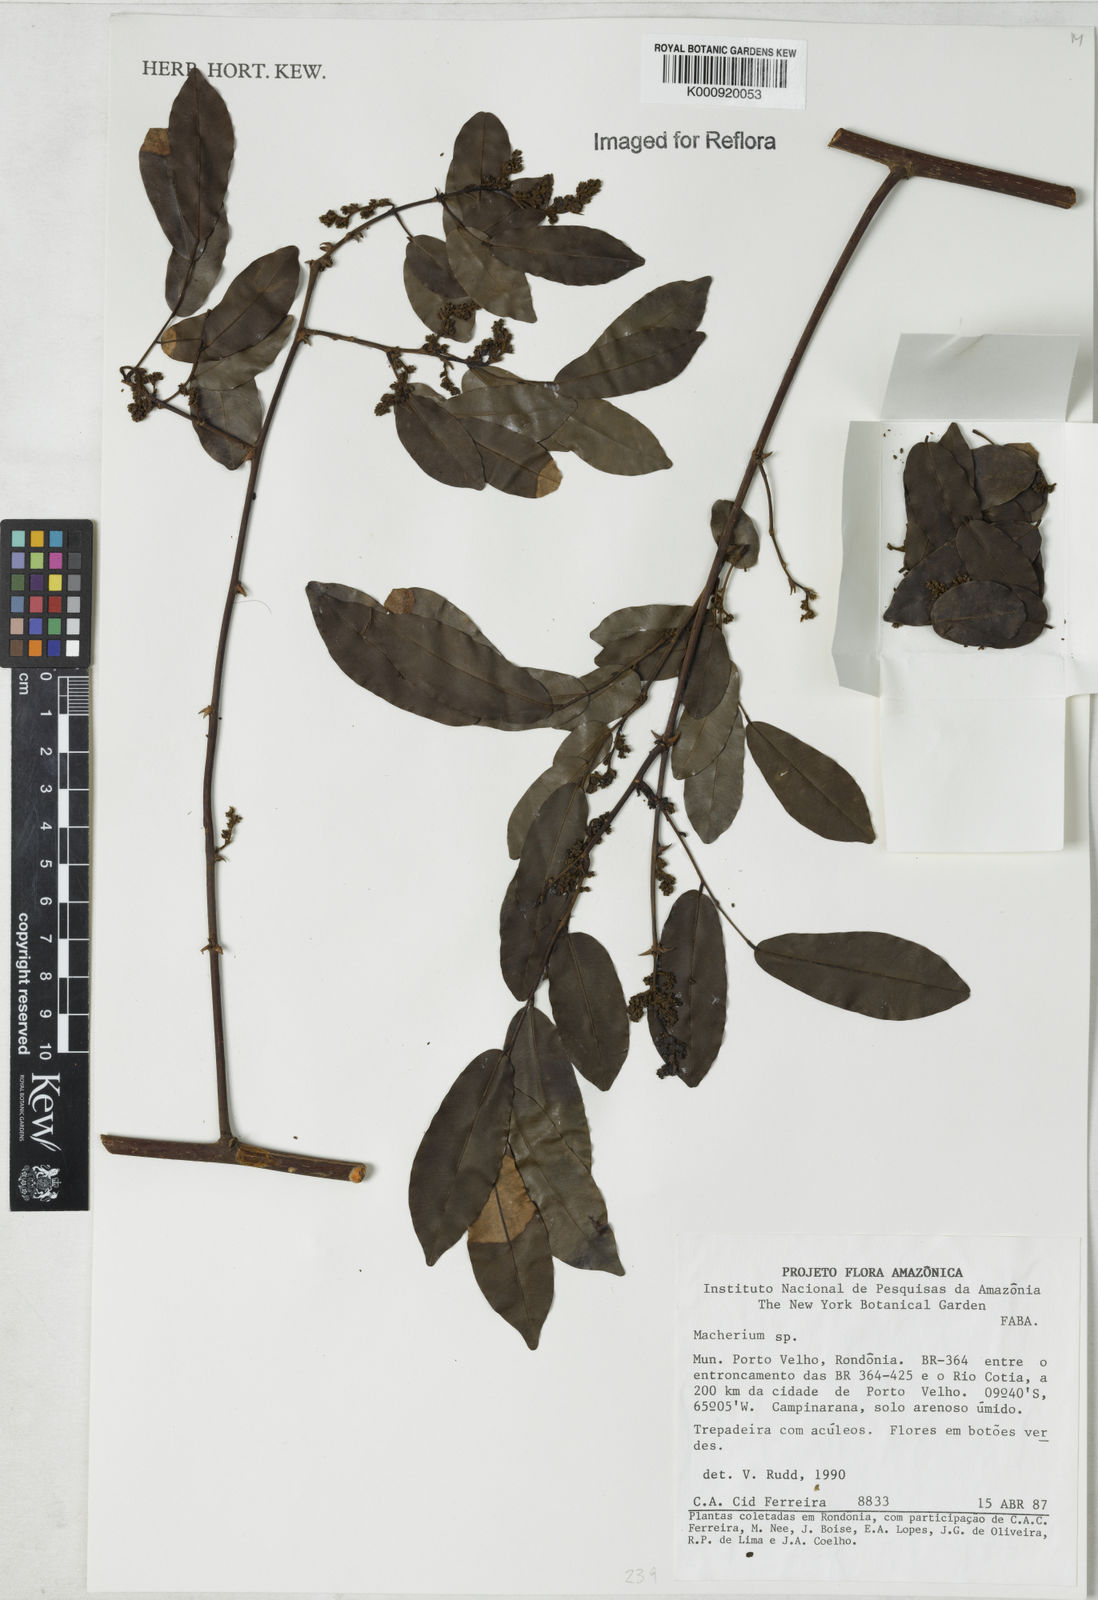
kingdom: Plantae
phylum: Tracheophyta
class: Magnoliopsida
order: Fabales
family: Fabaceae
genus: Machaerium
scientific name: Machaerium
